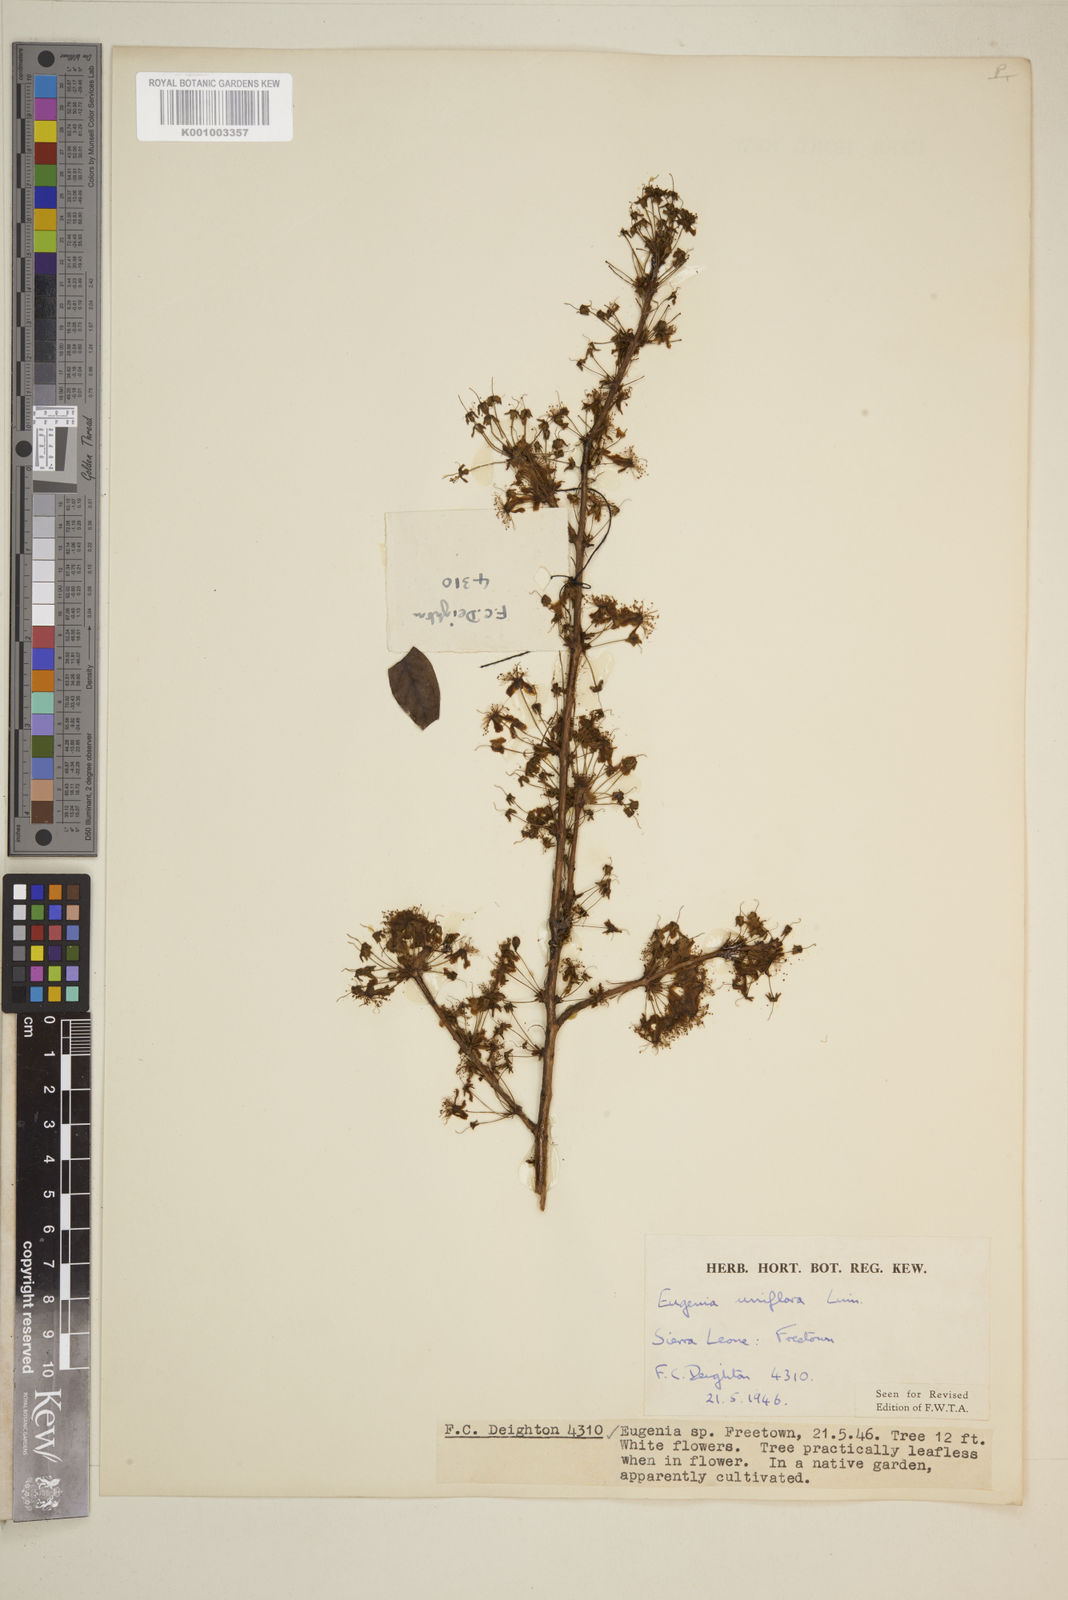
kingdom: Plantae
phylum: Tracheophyta
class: Magnoliopsida
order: Myrtales
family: Myrtaceae
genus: Eugenia
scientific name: Eugenia uniflora
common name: Surinam cherry
